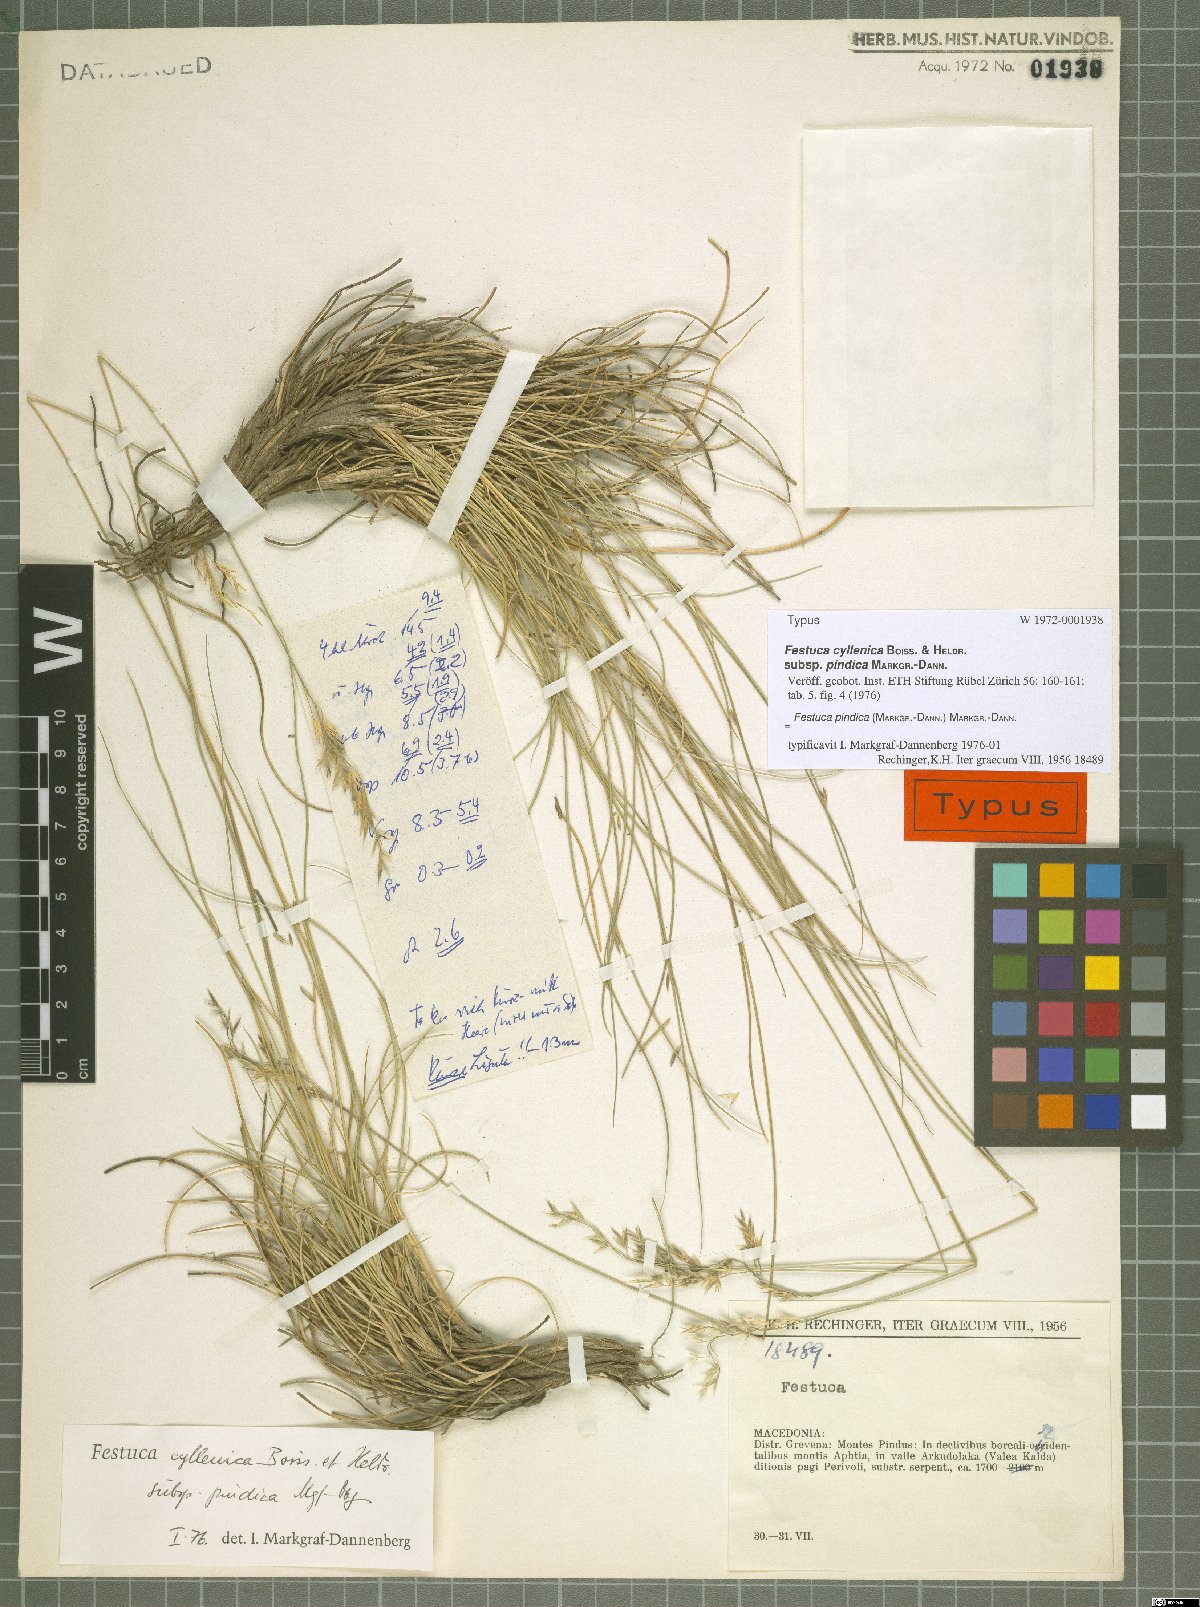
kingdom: Plantae
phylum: Tracheophyta
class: Liliopsida
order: Poales
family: Poaceae
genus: Festuca
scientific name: Festuca pindica
